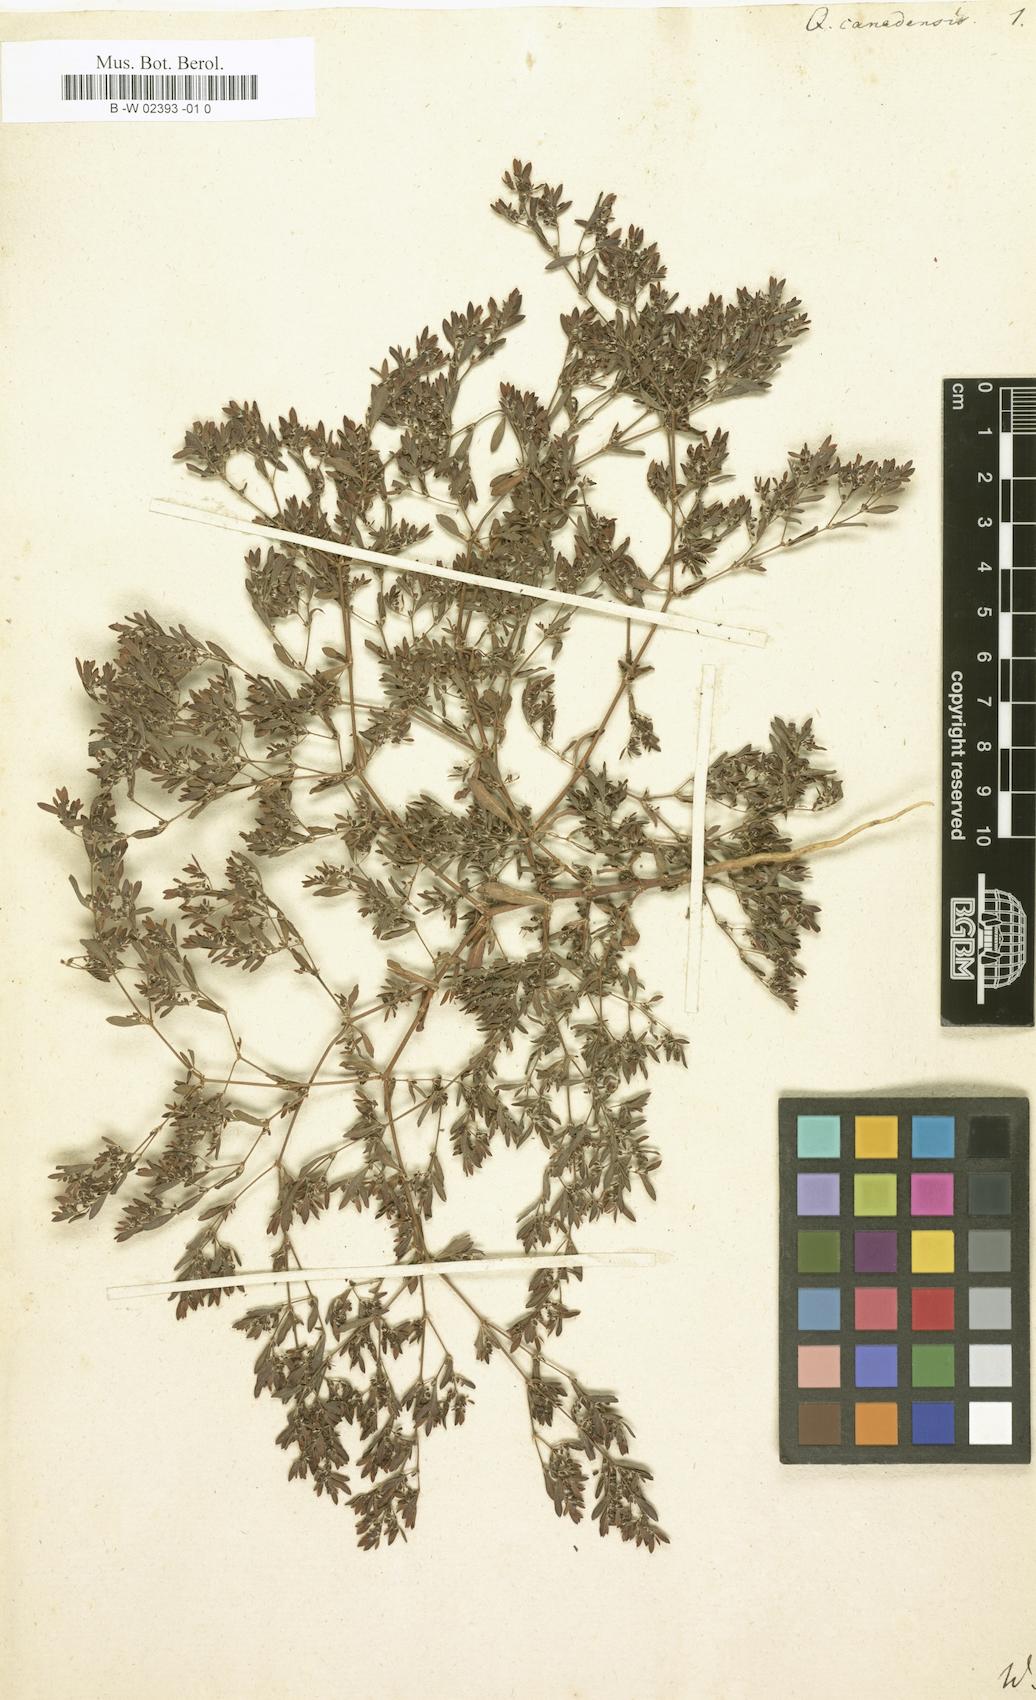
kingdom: Plantae
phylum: Tracheophyta
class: Magnoliopsida
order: Caryophyllales
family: Caryophyllaceae
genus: Paronychia
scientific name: Paronychia canadensis
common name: Canada forked nailwort
